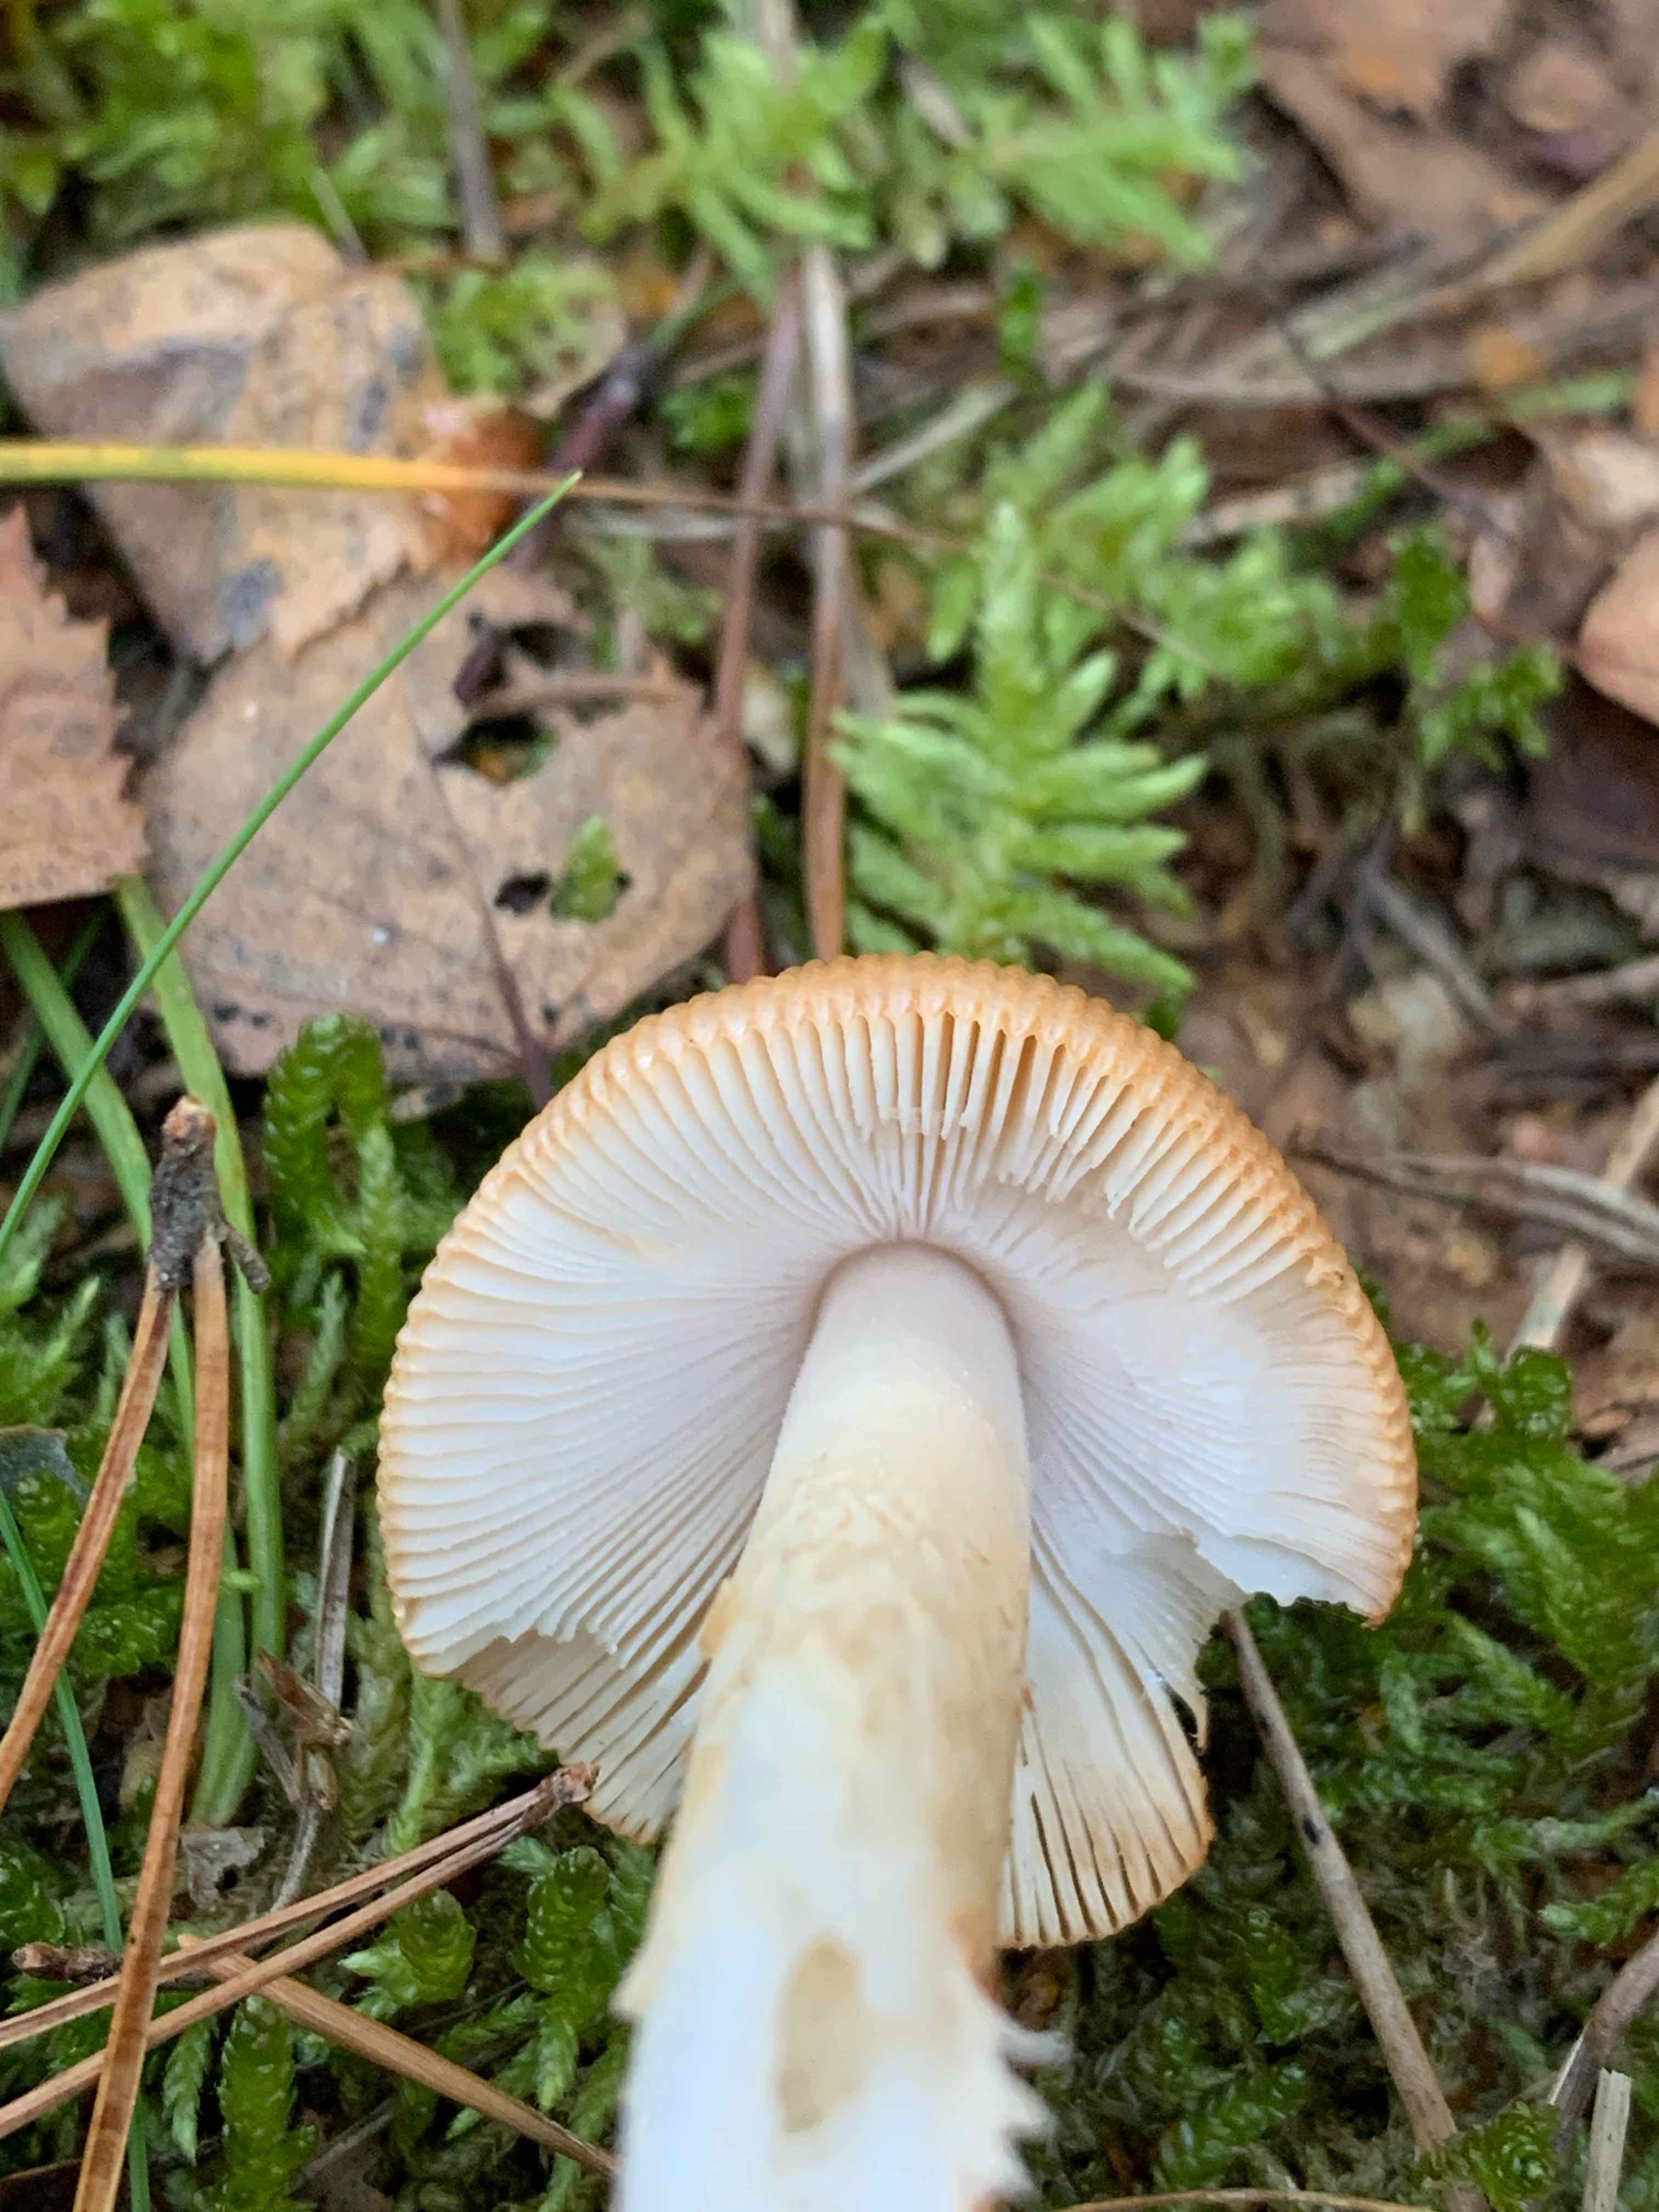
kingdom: Fungi
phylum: Basidiomycota
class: Agaricomycetes
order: Agaricales
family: Amanitaceae
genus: Amanita
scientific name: Amanita fulva
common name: brun kam-fluesvamp
